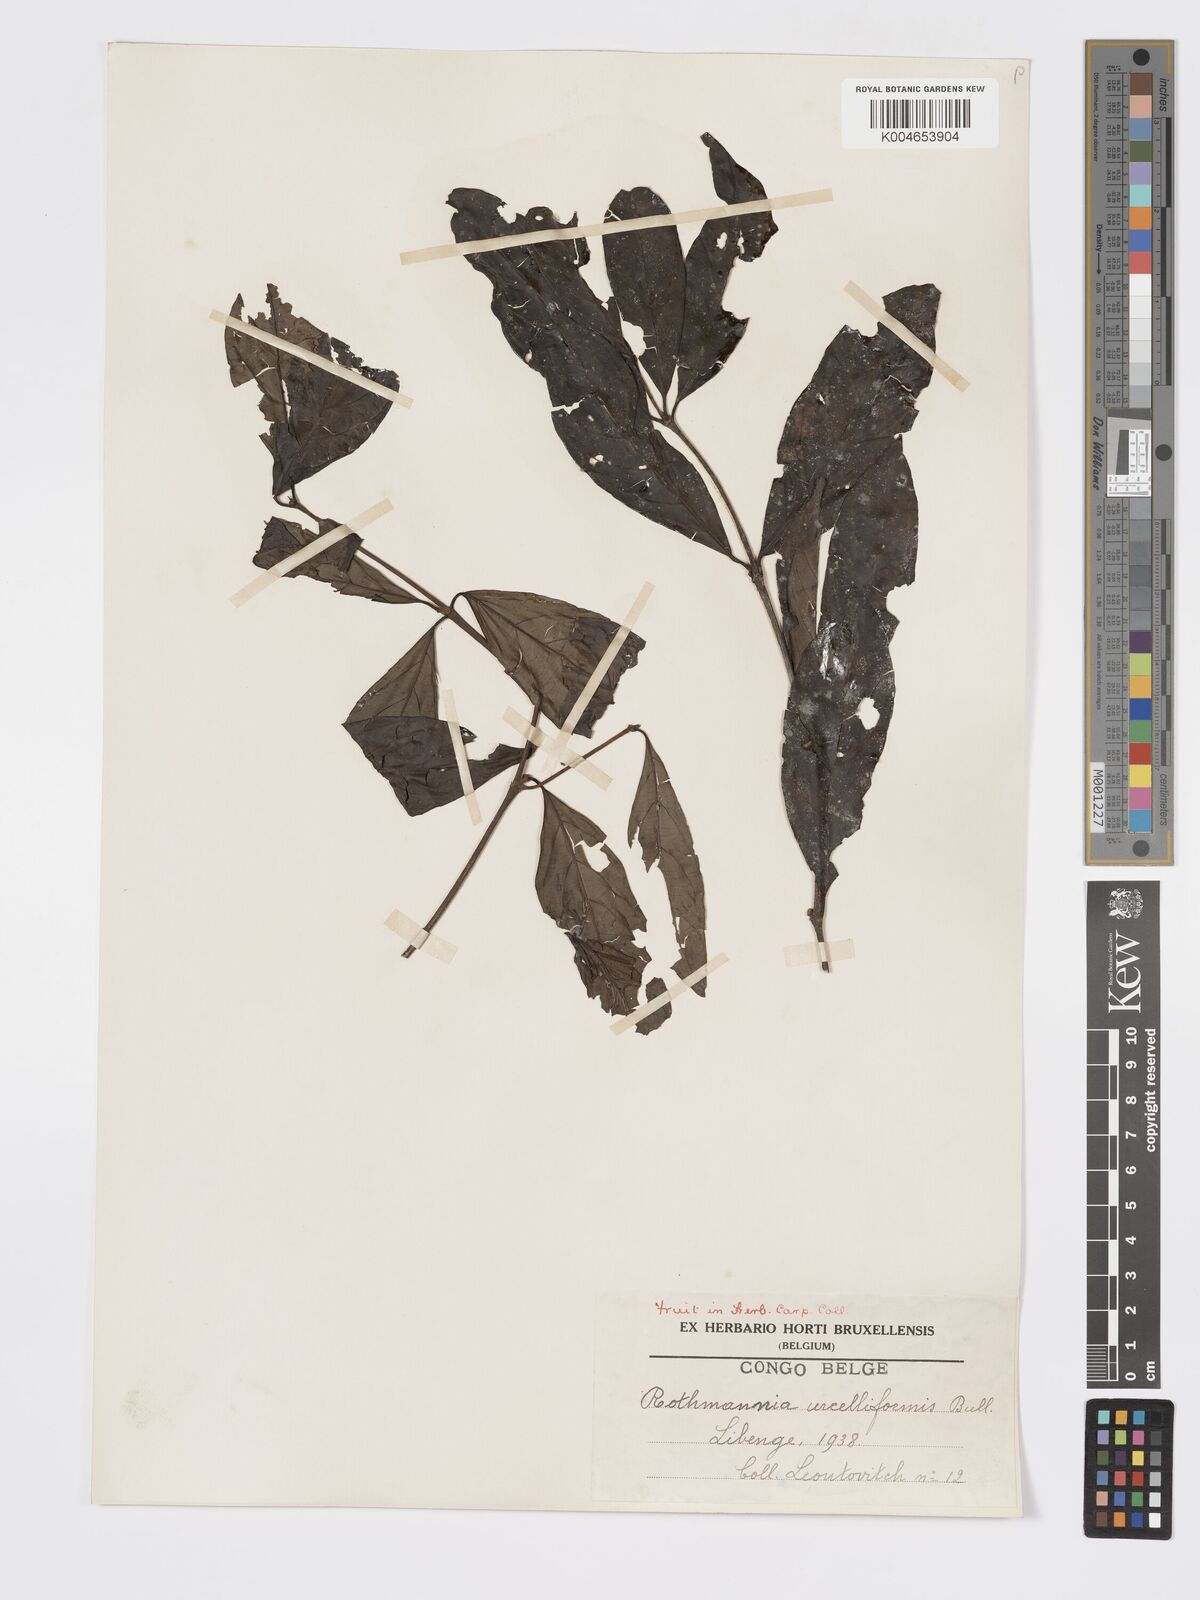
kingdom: Plantae
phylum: Tracheophyta
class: Magnoliopsida
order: Gentianales
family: Rubiaceae
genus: Rothmannia
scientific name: Rothmannia urcelliformis
